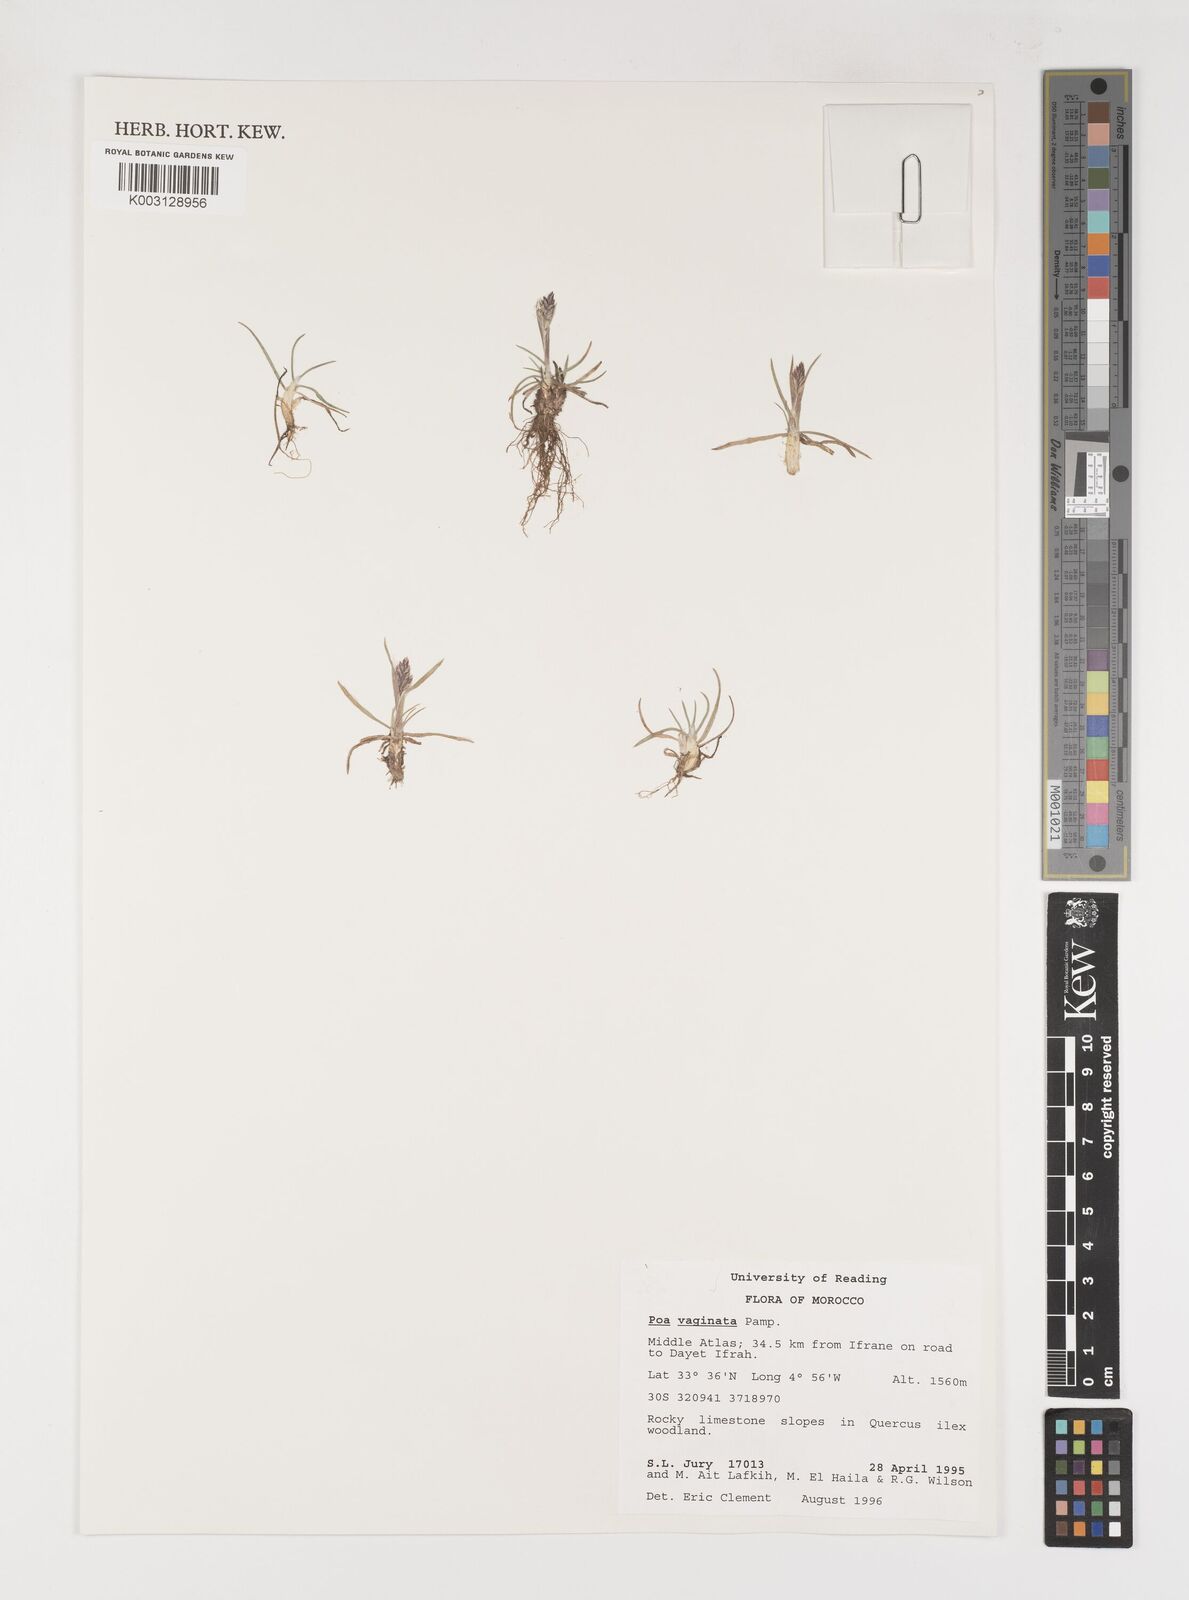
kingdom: Plantae
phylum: Tracheophyta
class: Liliopsida
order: Poales
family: Poaceae
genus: Poa
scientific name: Poa vaginata
